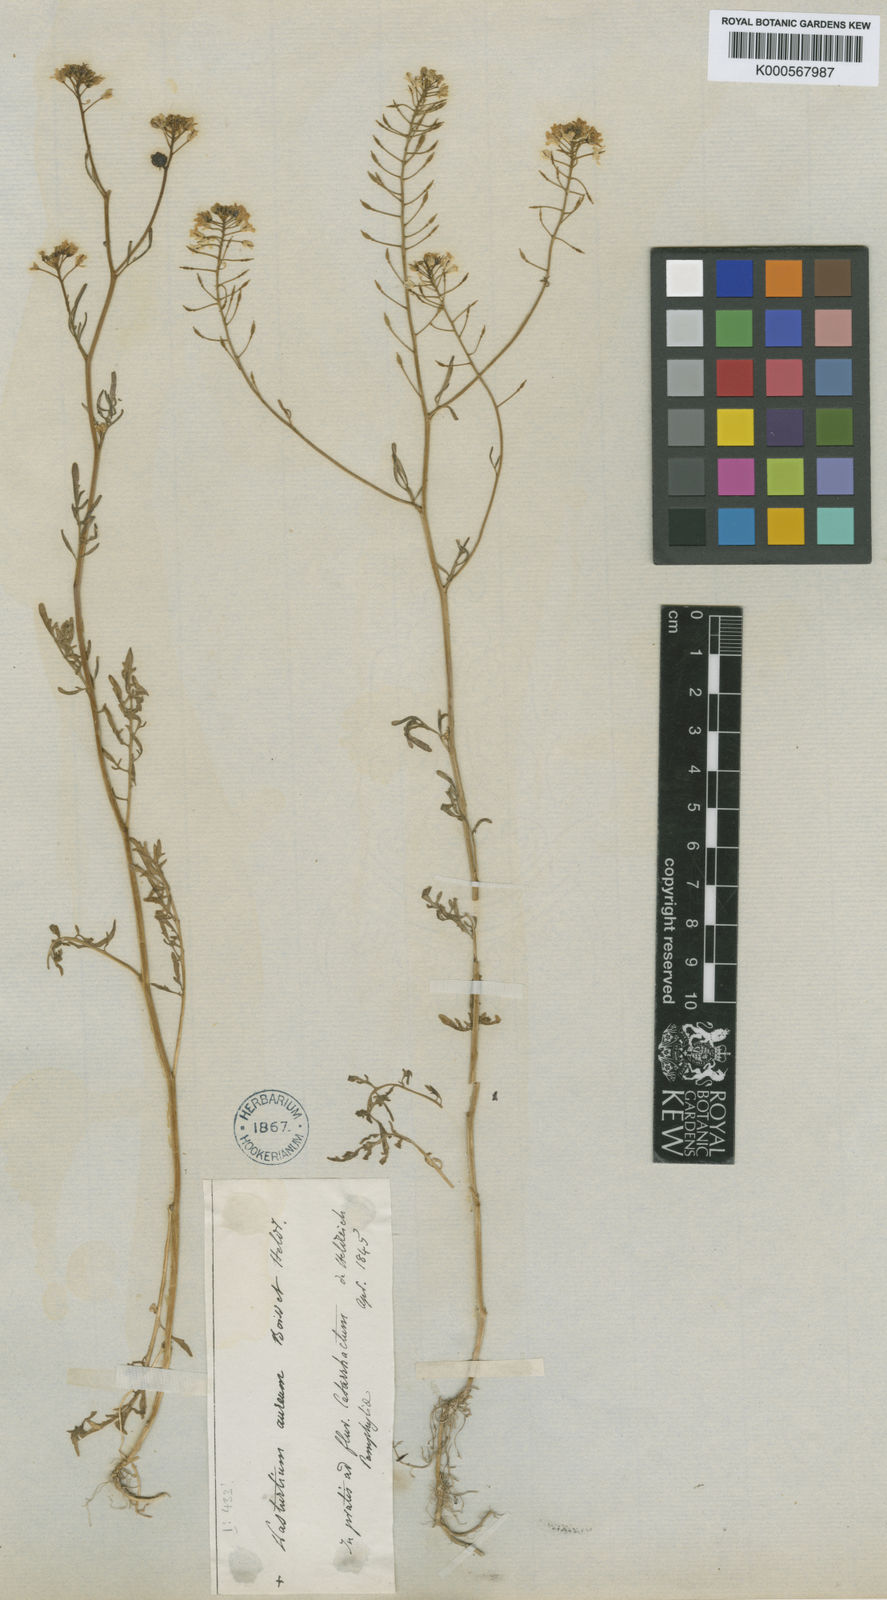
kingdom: Plantae
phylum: Tracheophyta
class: Magnoliopsida
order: Brassicales
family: Brassicaceae
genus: Rorippa
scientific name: Rorippa aurea
